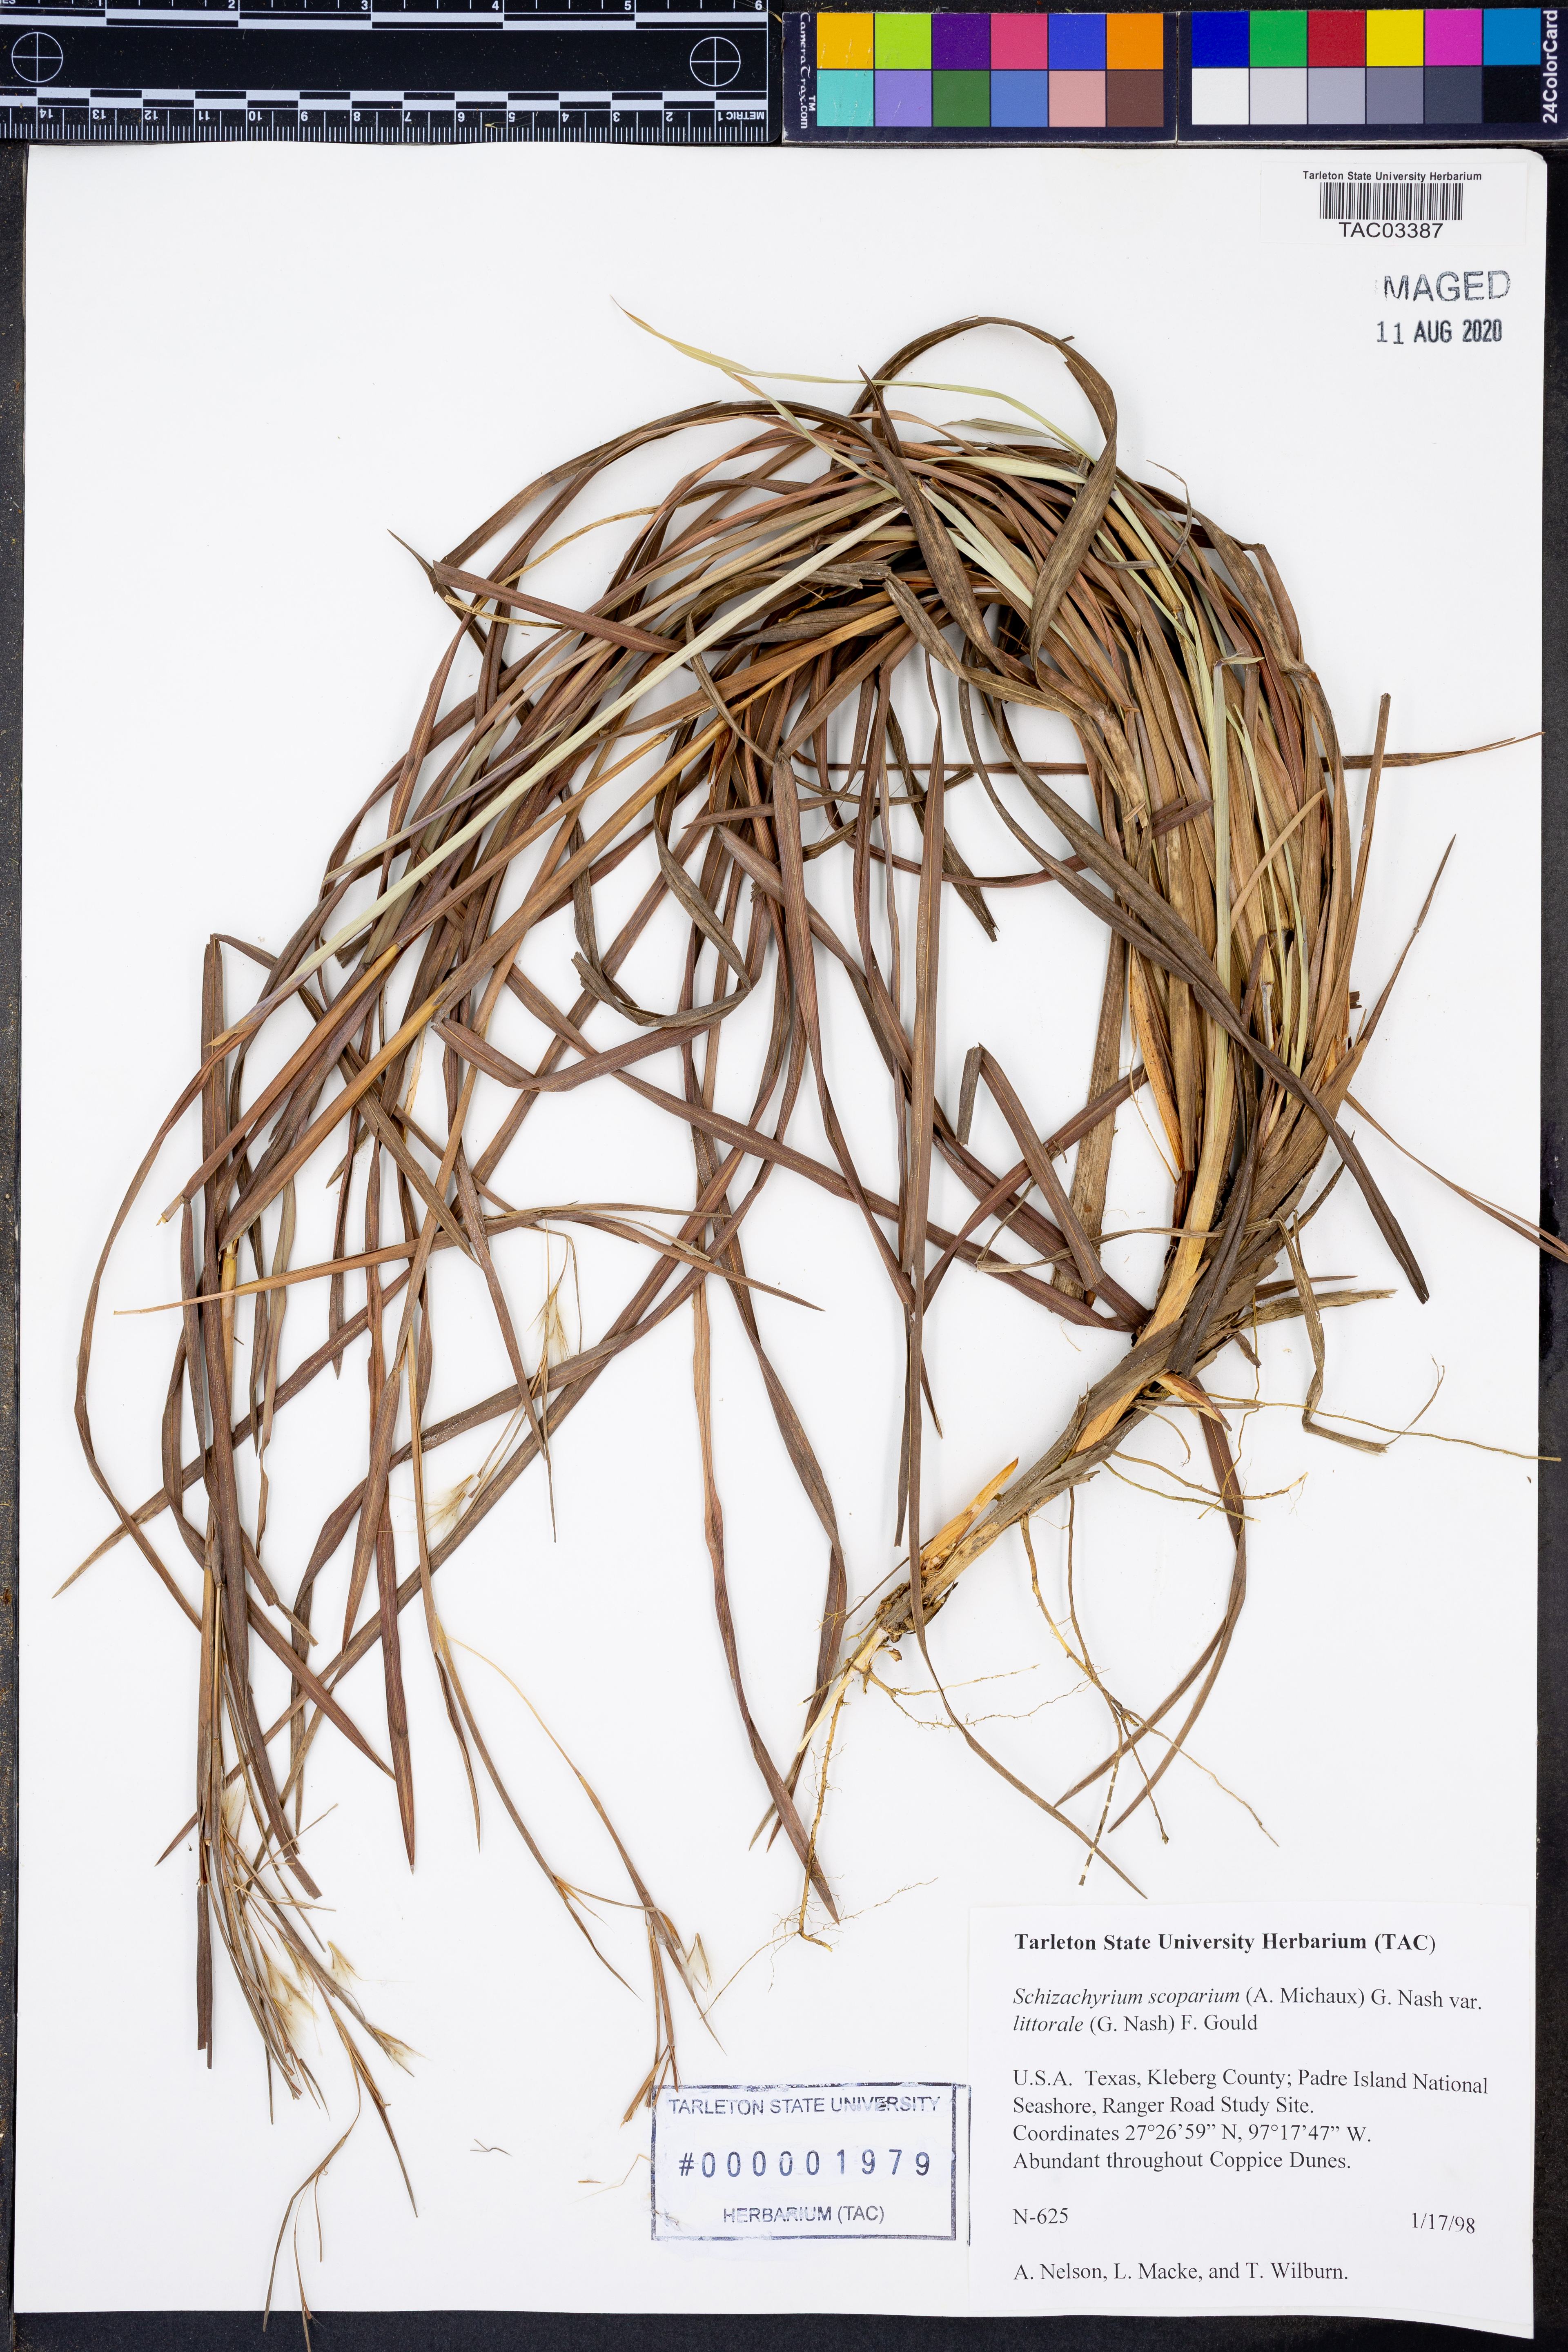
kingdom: Plantae
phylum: Tracheophyta
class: Liliopsida
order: Poales
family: Poaceae
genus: Schizachyrium
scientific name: Schizachyrium scoparium
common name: Little bluestem
